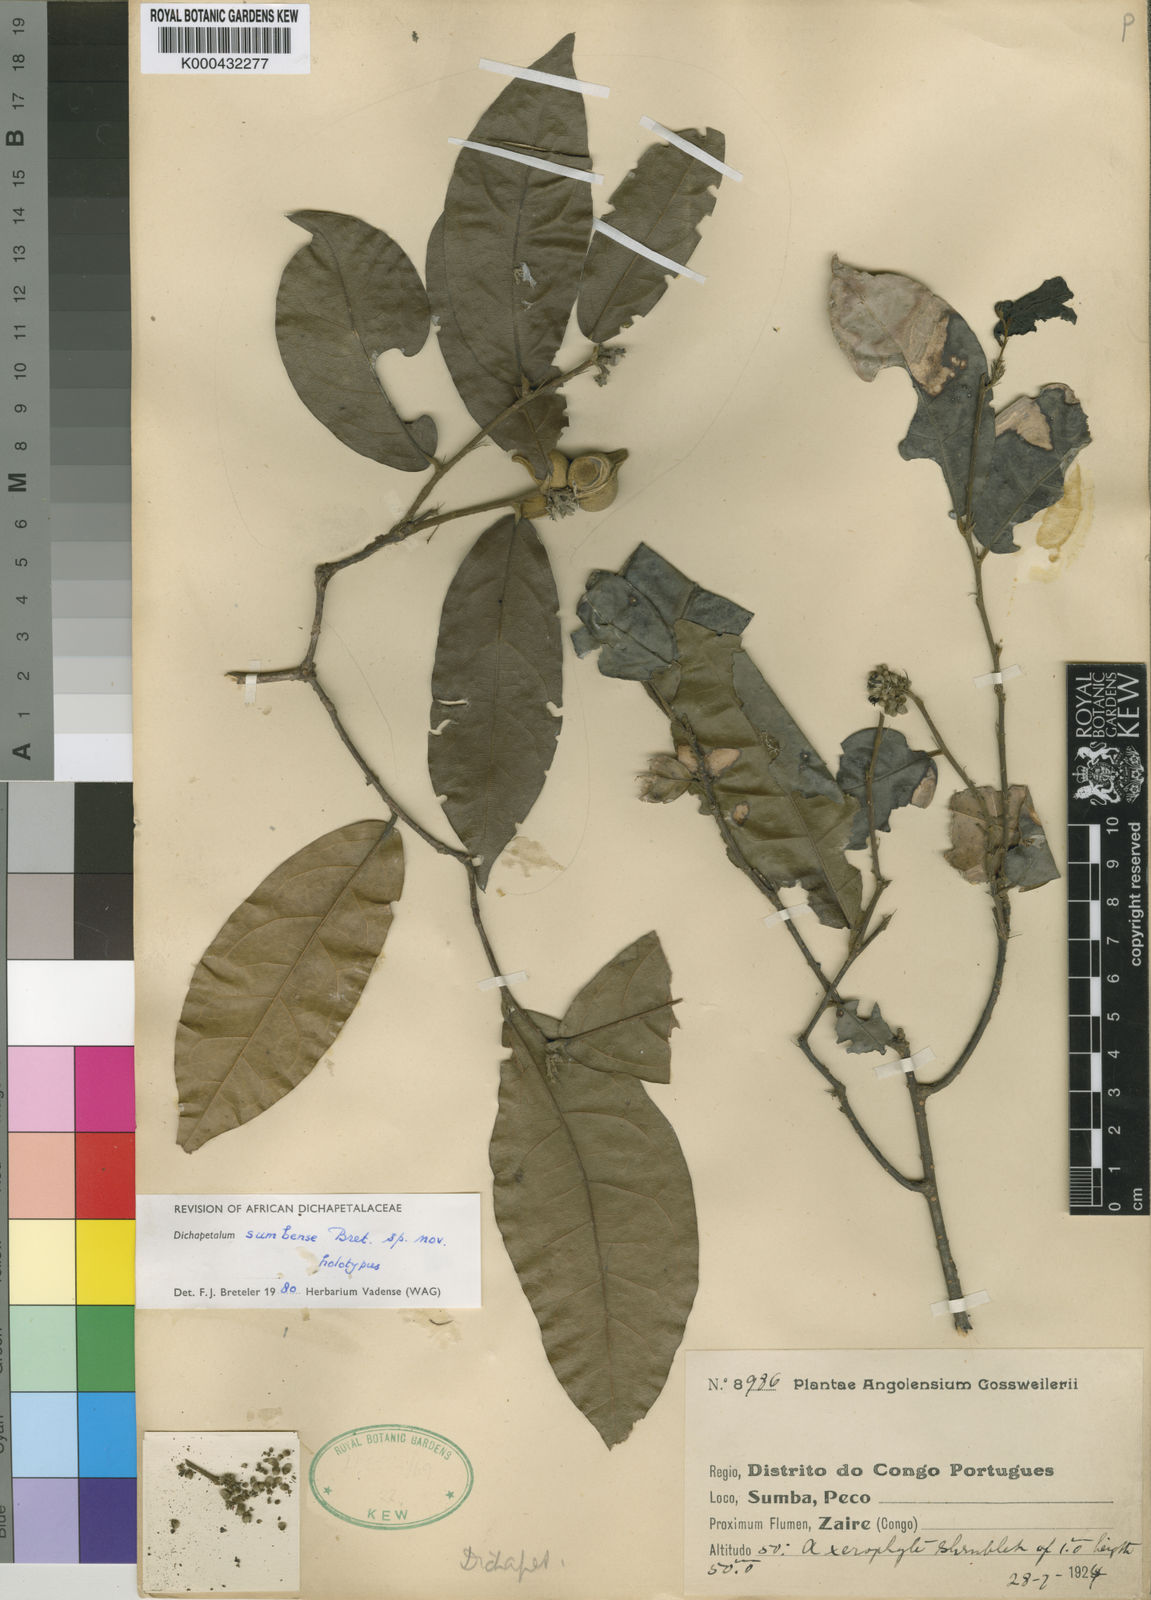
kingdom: Plantae
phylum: Tracheophyta
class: Magnoliopsida
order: Malpighiales
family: Dichapetalaceae
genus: Dichapetalum
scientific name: Dichapetalum sumbense
